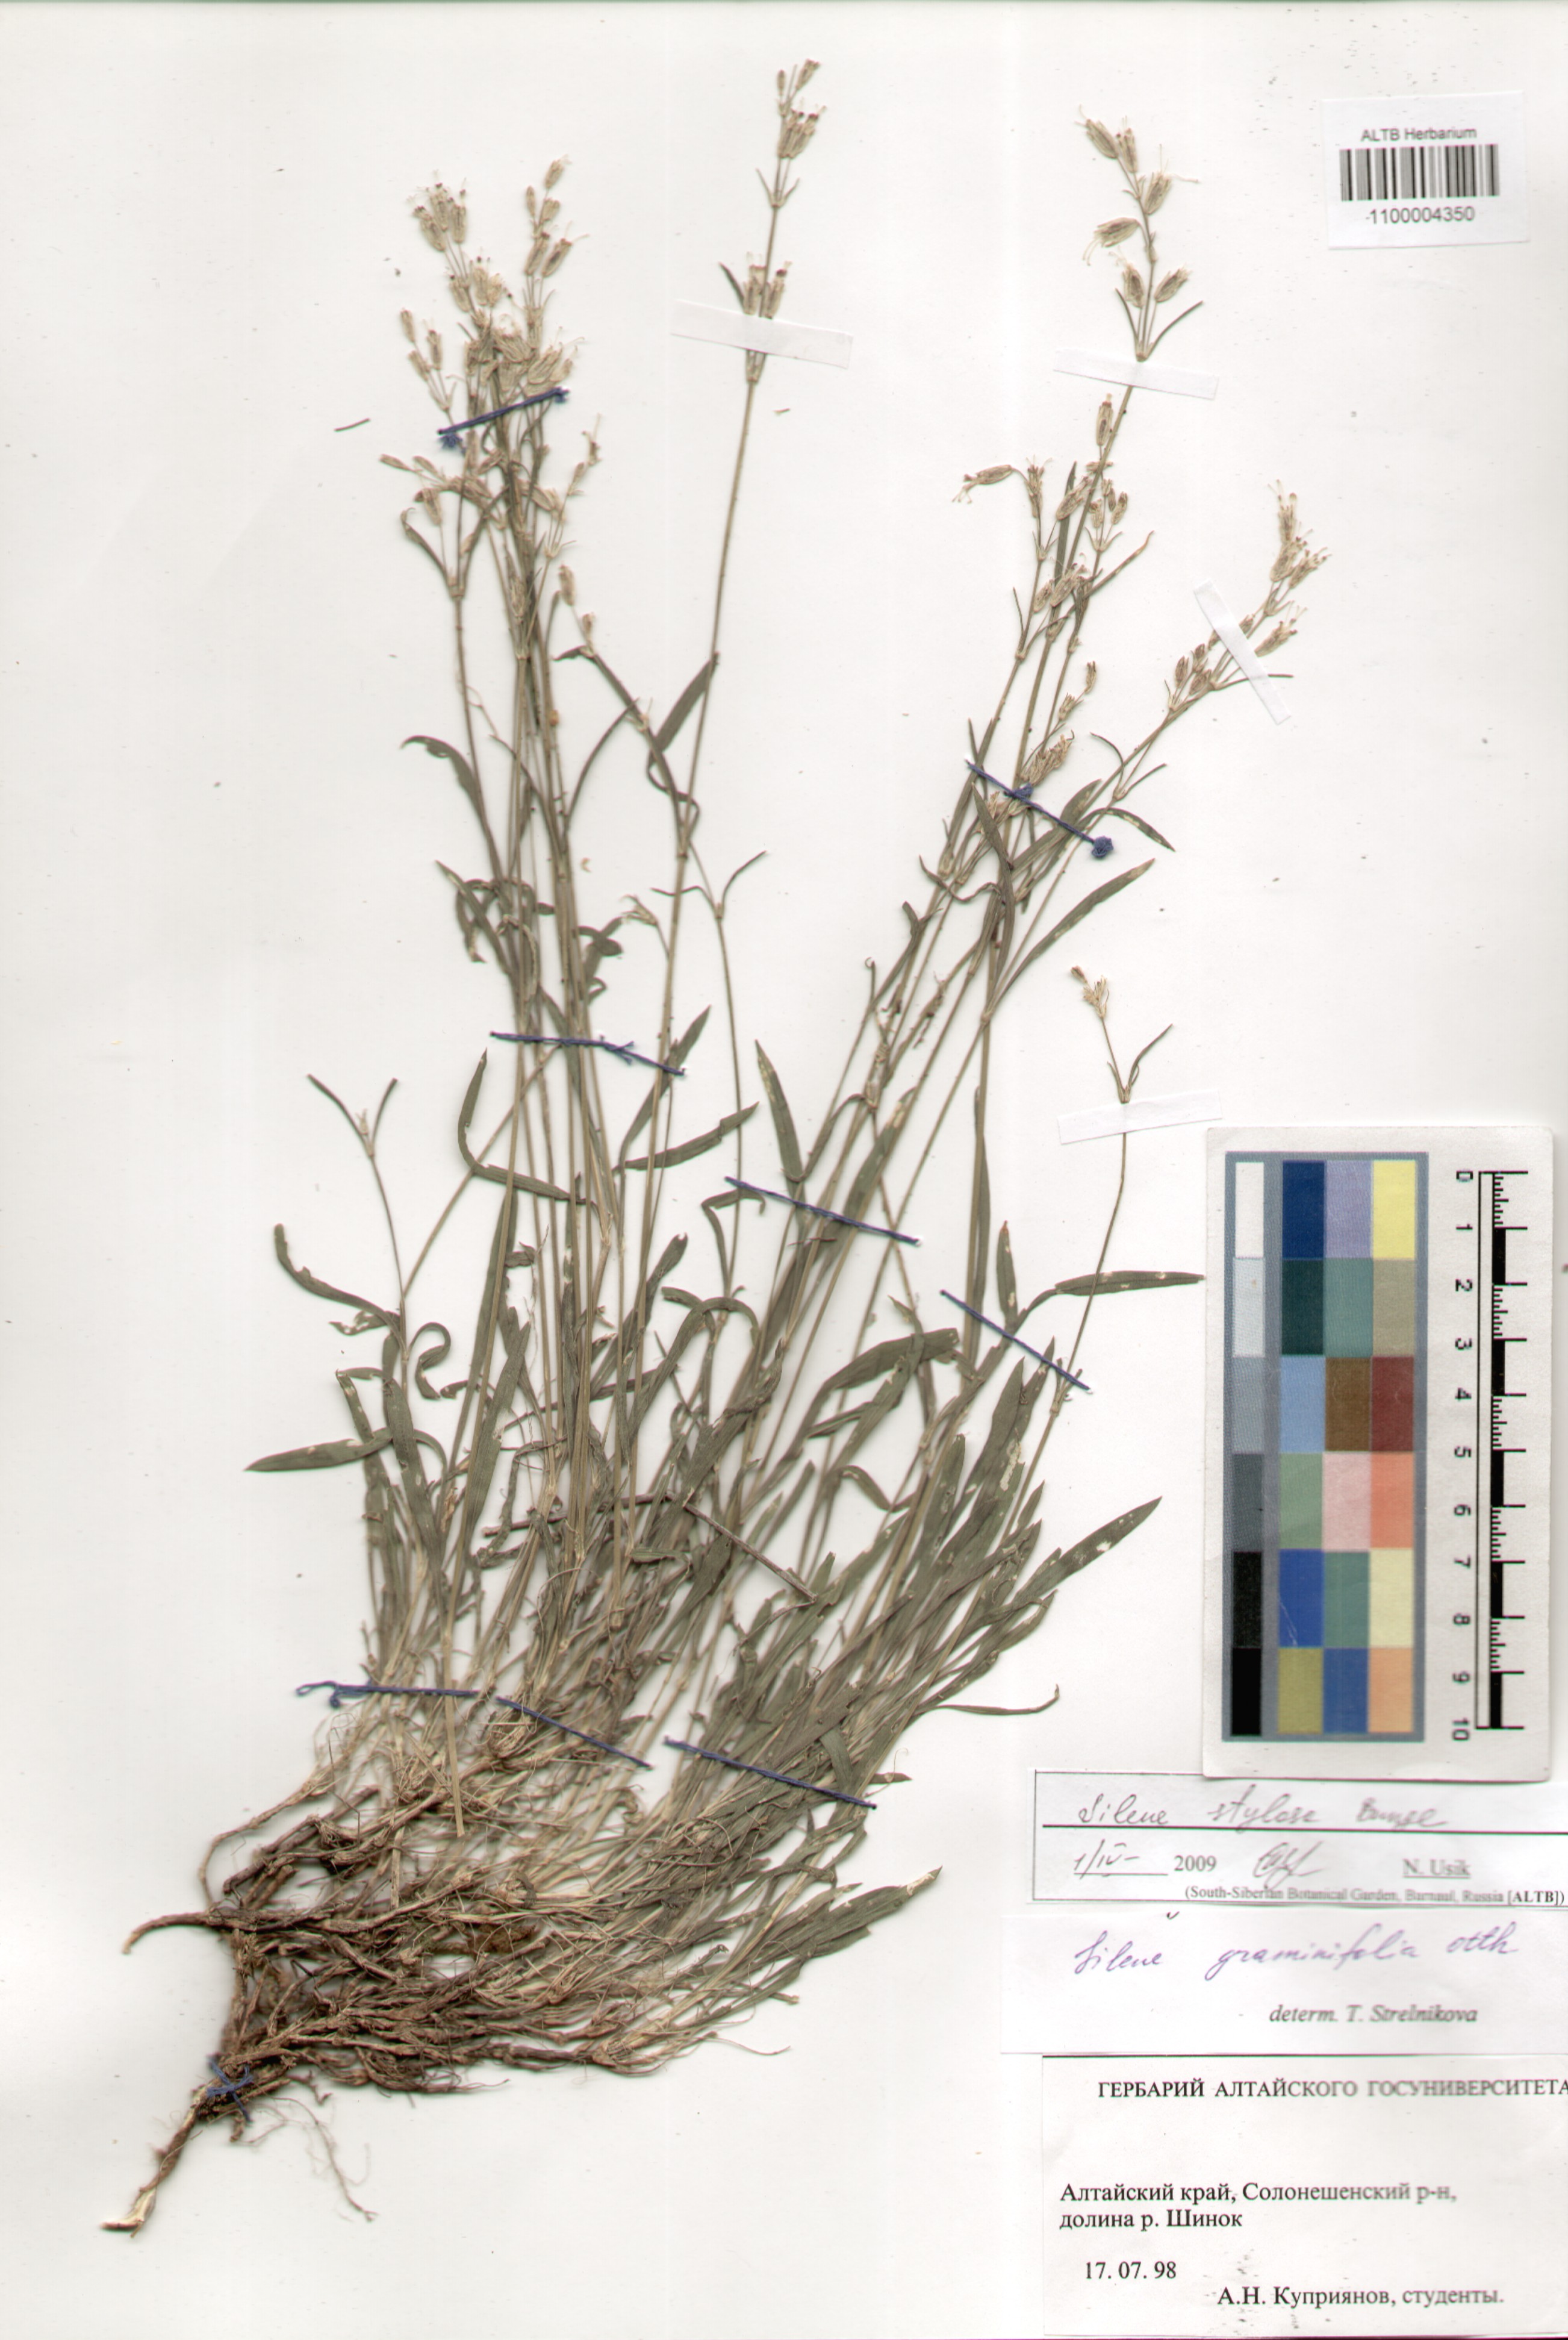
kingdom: Plantae
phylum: Tracheophyta
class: Magnoliopsida
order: Caryophyllales
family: Caryophyllaceae
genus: Silene
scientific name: Silene graminifolia
